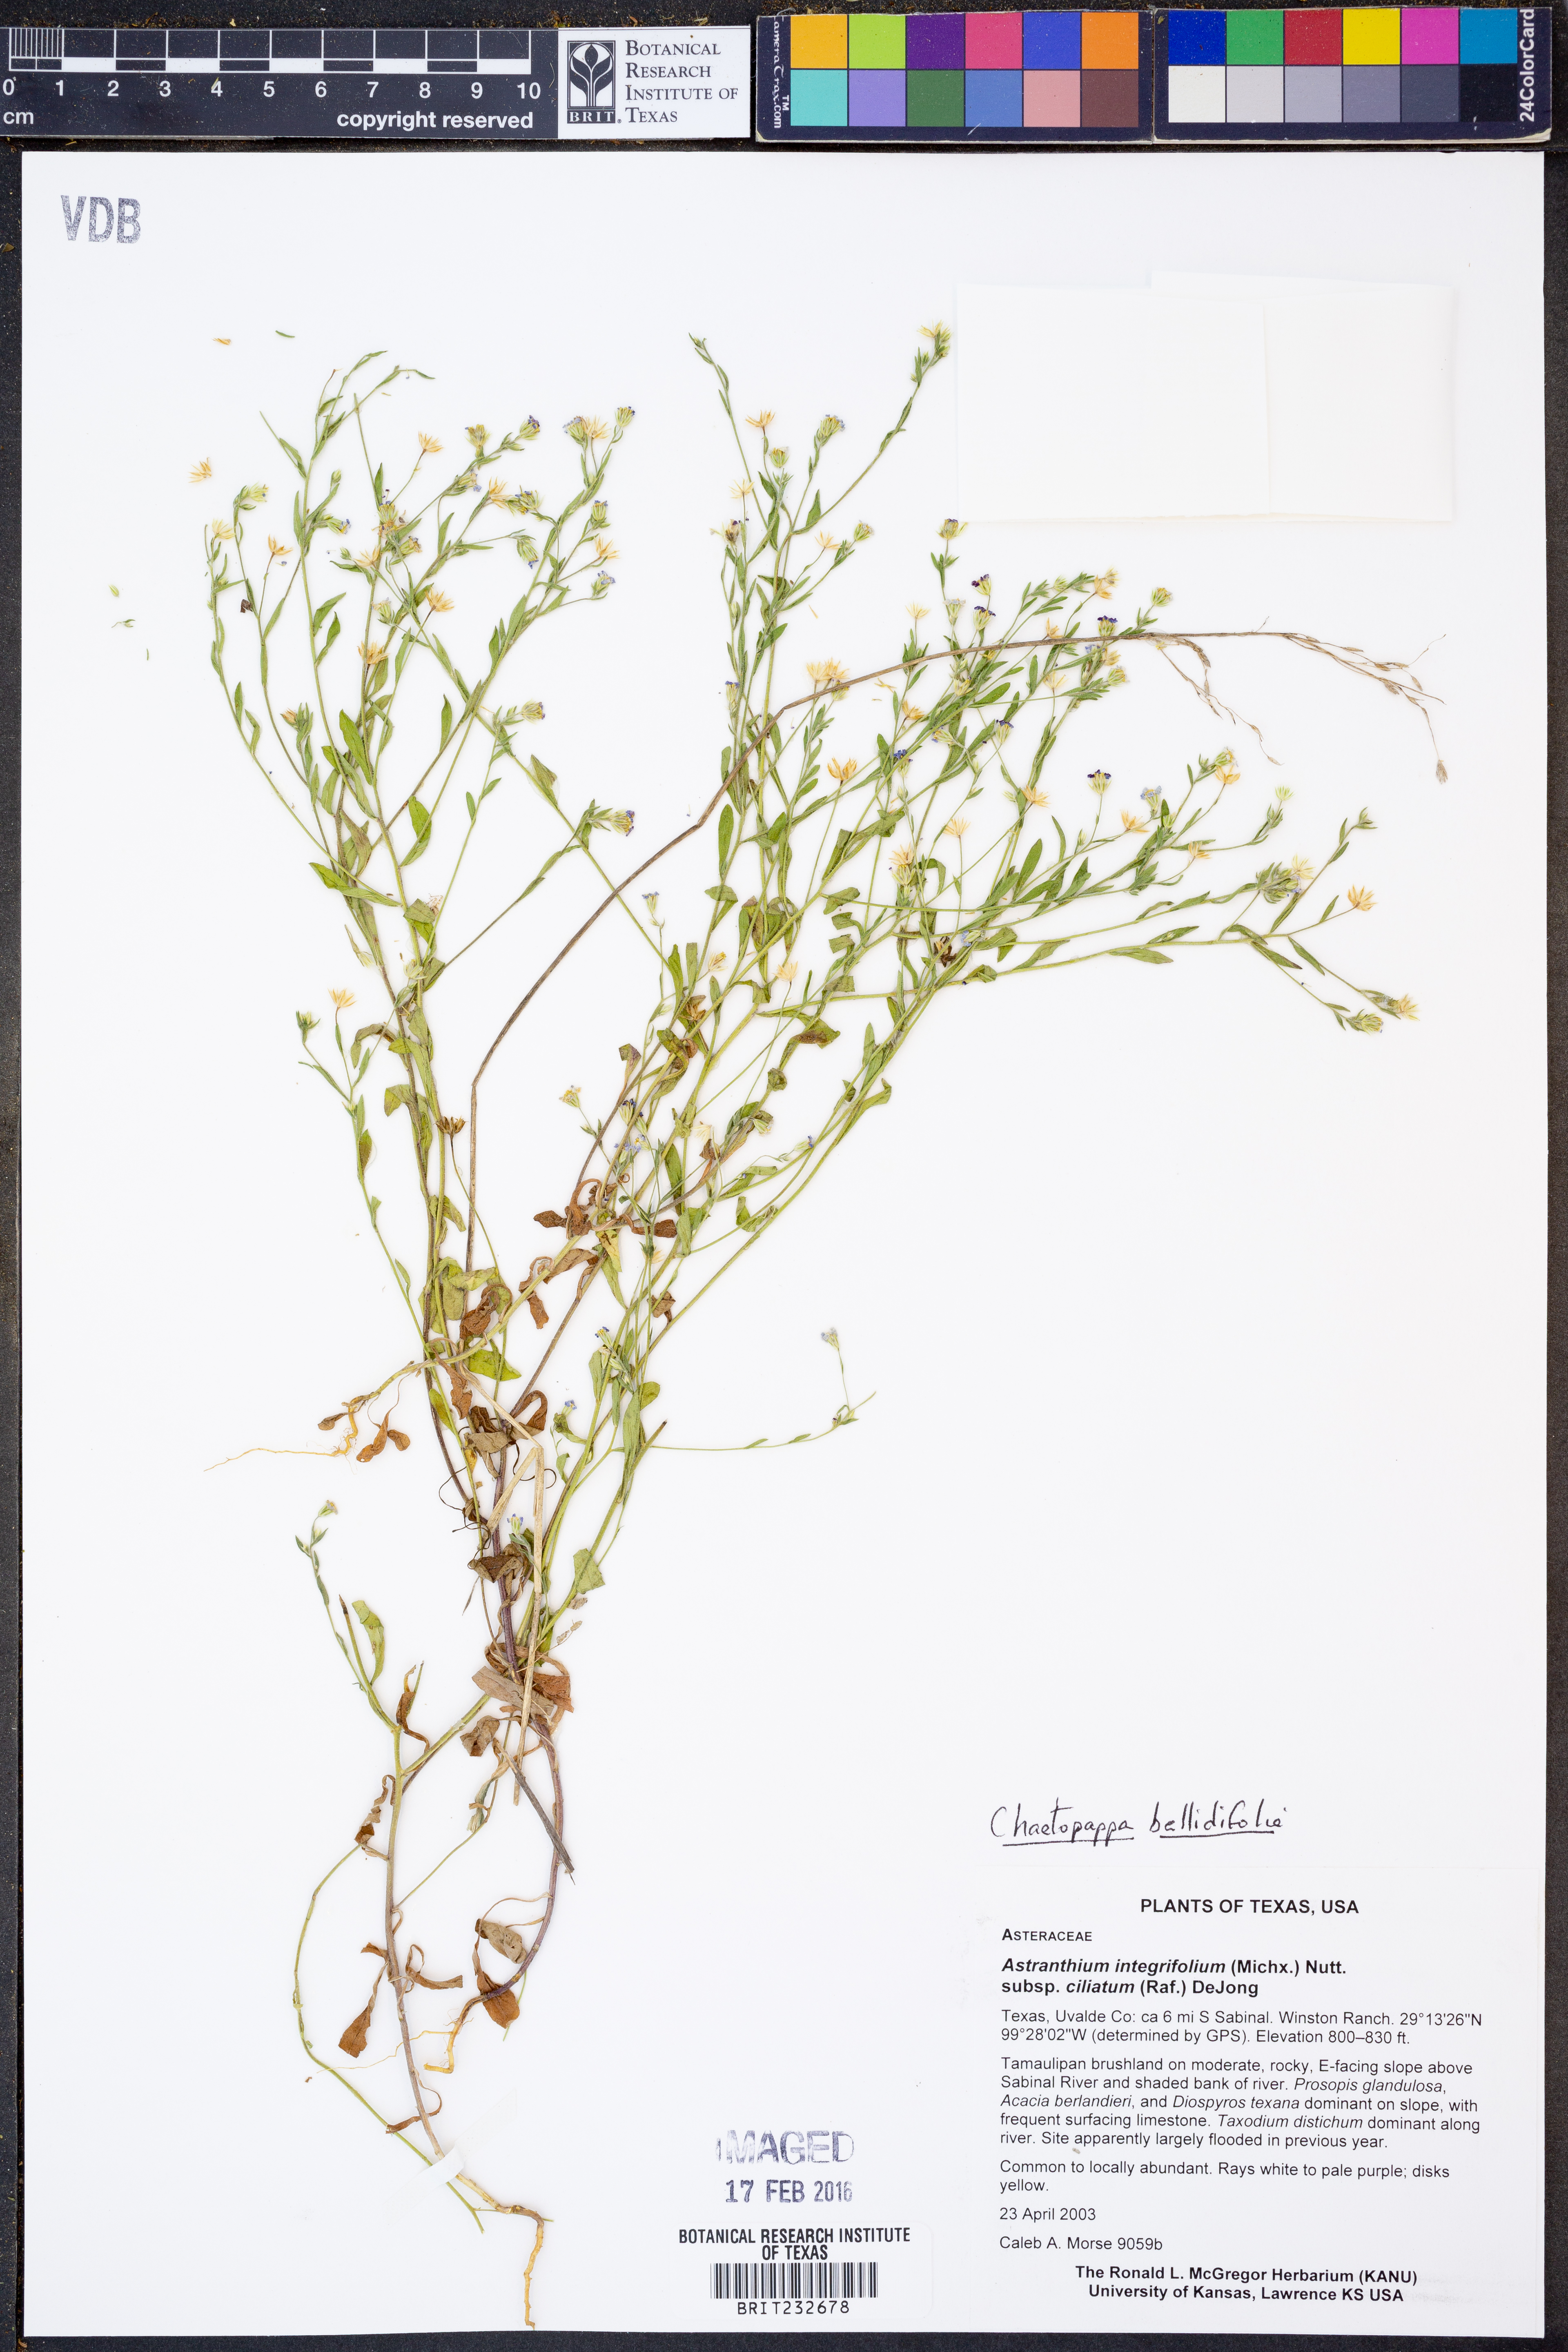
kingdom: Plantae
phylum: Tracheophyta
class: Magnoliopsida
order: Asterales
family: Asteraceae
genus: Chaetopappa
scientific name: Chaetopappa bellidifolia
